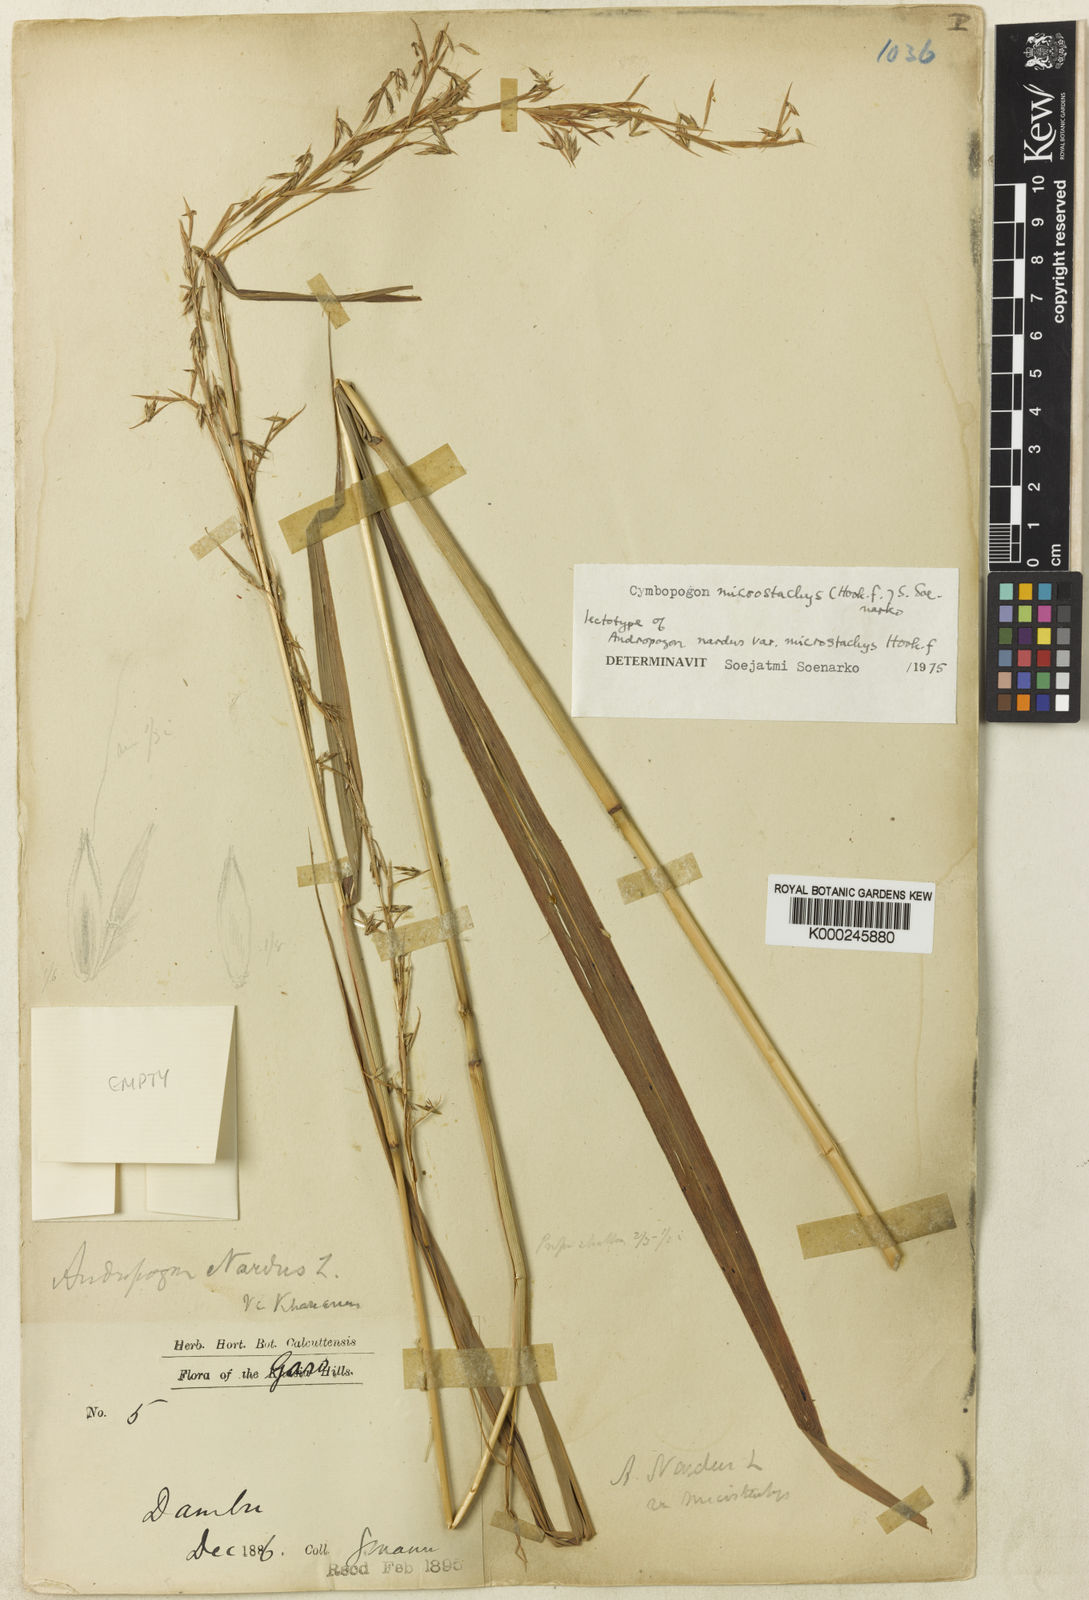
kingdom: Plantae
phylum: Tracheophyta
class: Liliopsida
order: Poales
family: Poaceae
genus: Cymbopogon
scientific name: Cymbopogon microstachys
